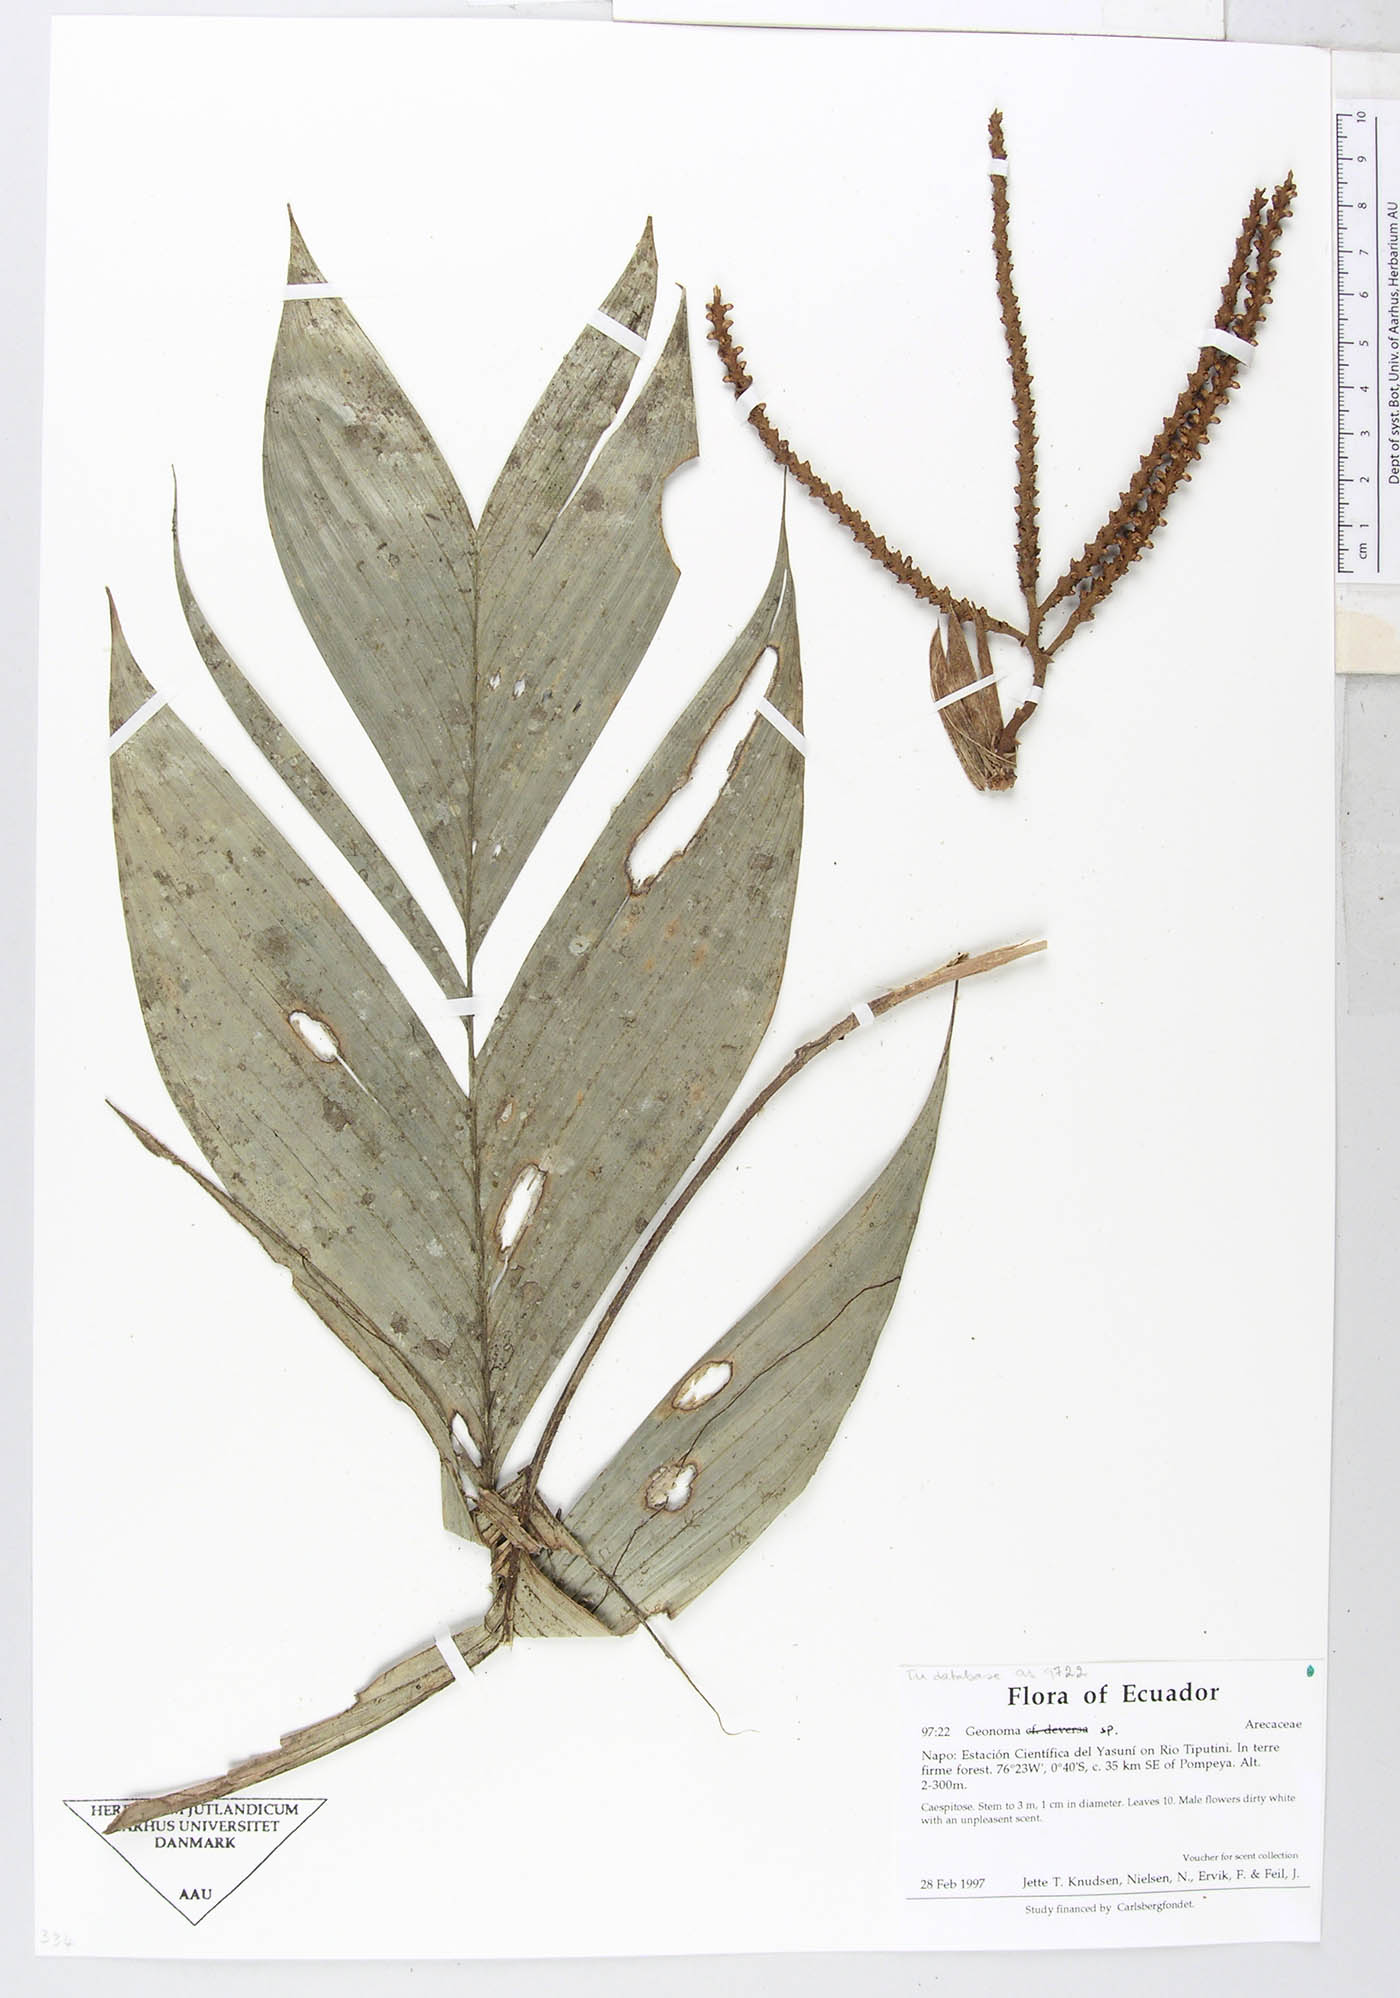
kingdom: Plantae
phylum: Tracheophyta
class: Liliopsida
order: Arecales
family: Arecaceae
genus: Geonoma
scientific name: Geonoma stricta
